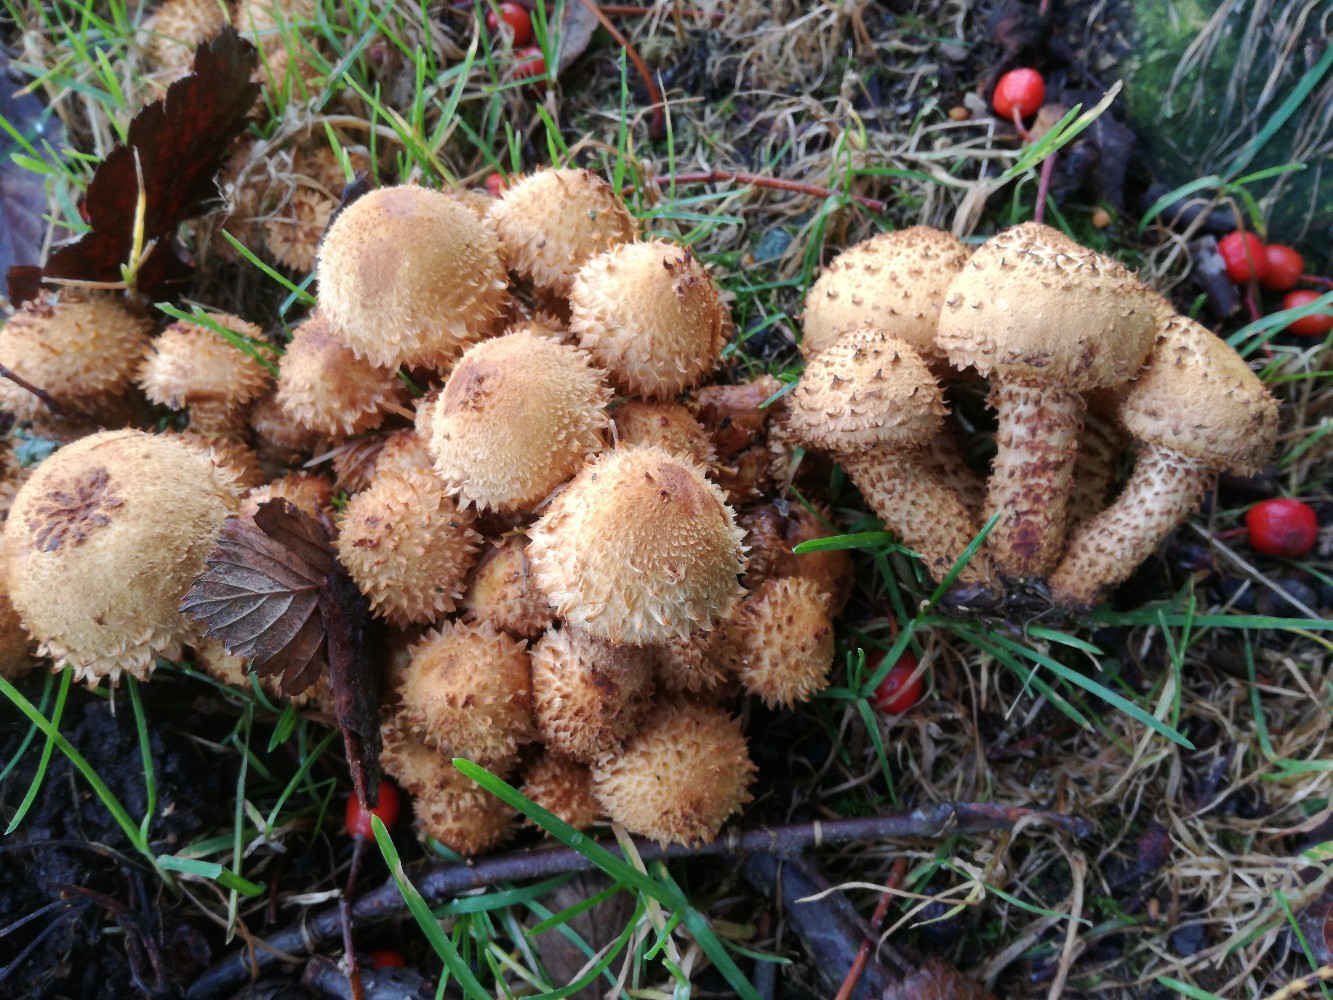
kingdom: Fungi
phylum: Basidiomycota
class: Agaricomycetes
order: Agaricales
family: Strophariaceae
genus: Pholiota
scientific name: Pholiota squarrosa
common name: krumskællet skælhat
